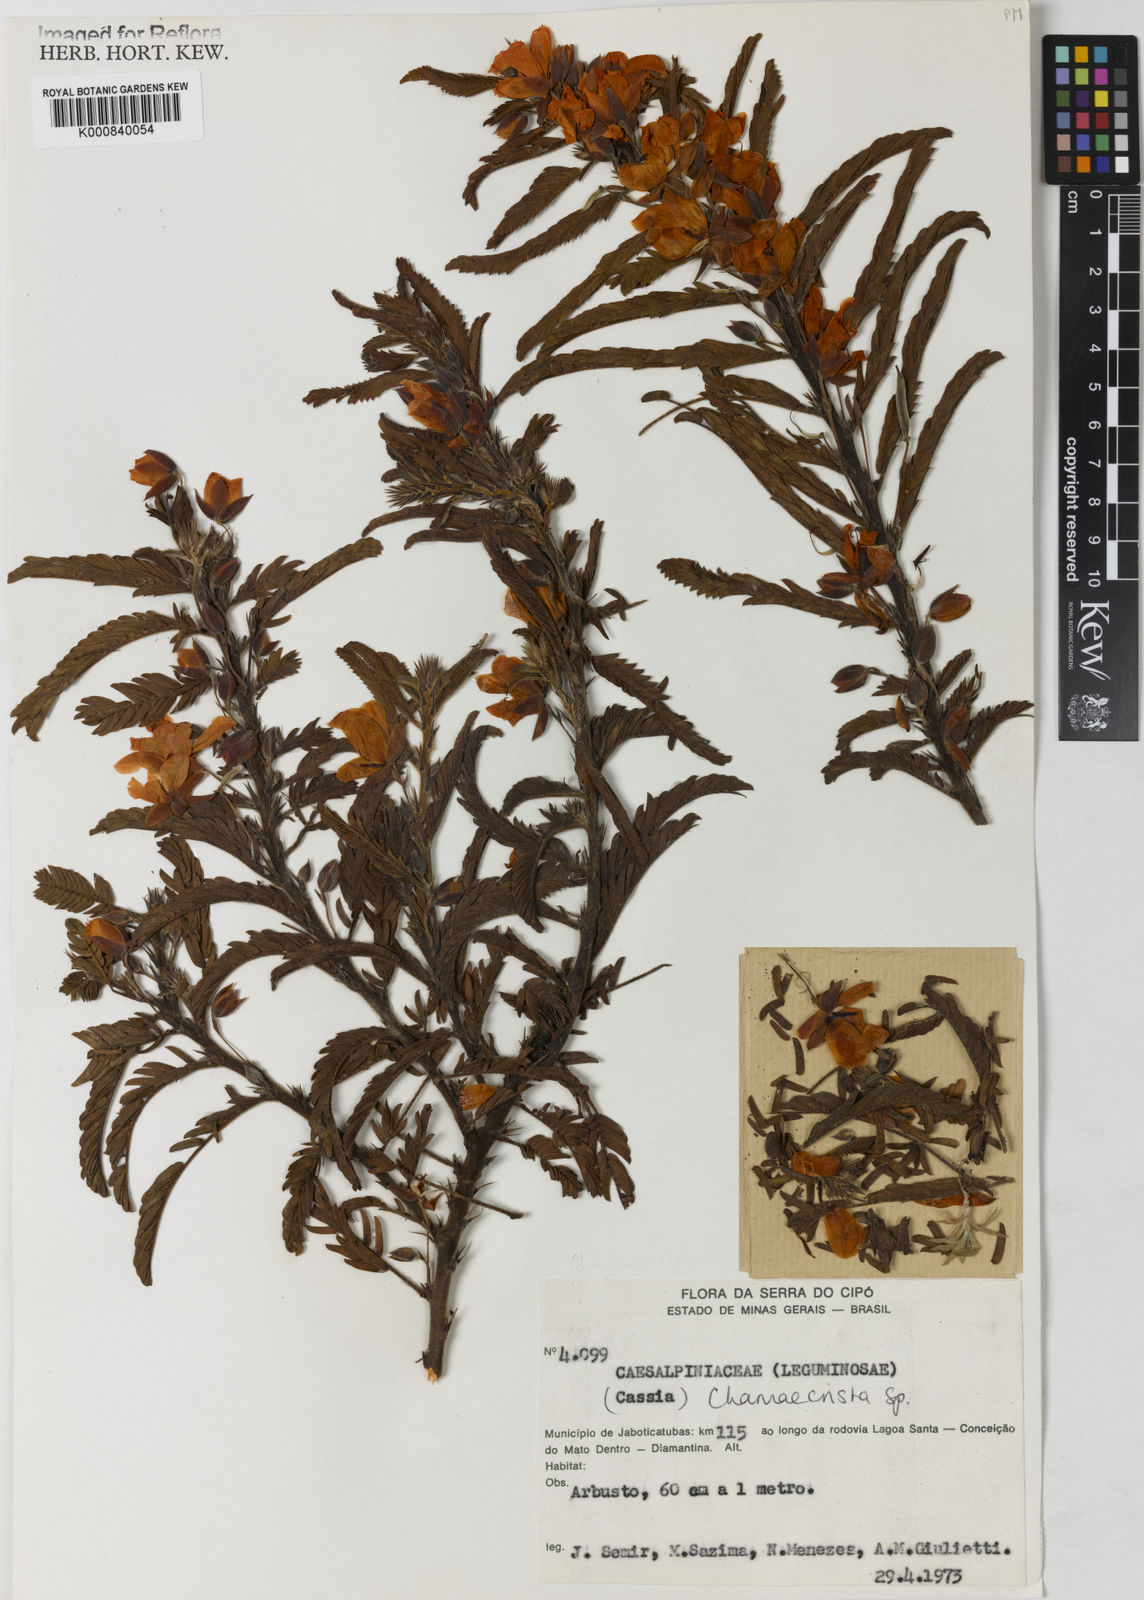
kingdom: Plantae
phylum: Tracheophyta
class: Magnoliopsida
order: Fabales
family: Fabaceae
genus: Chamaecrista
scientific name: Chamaecrista
